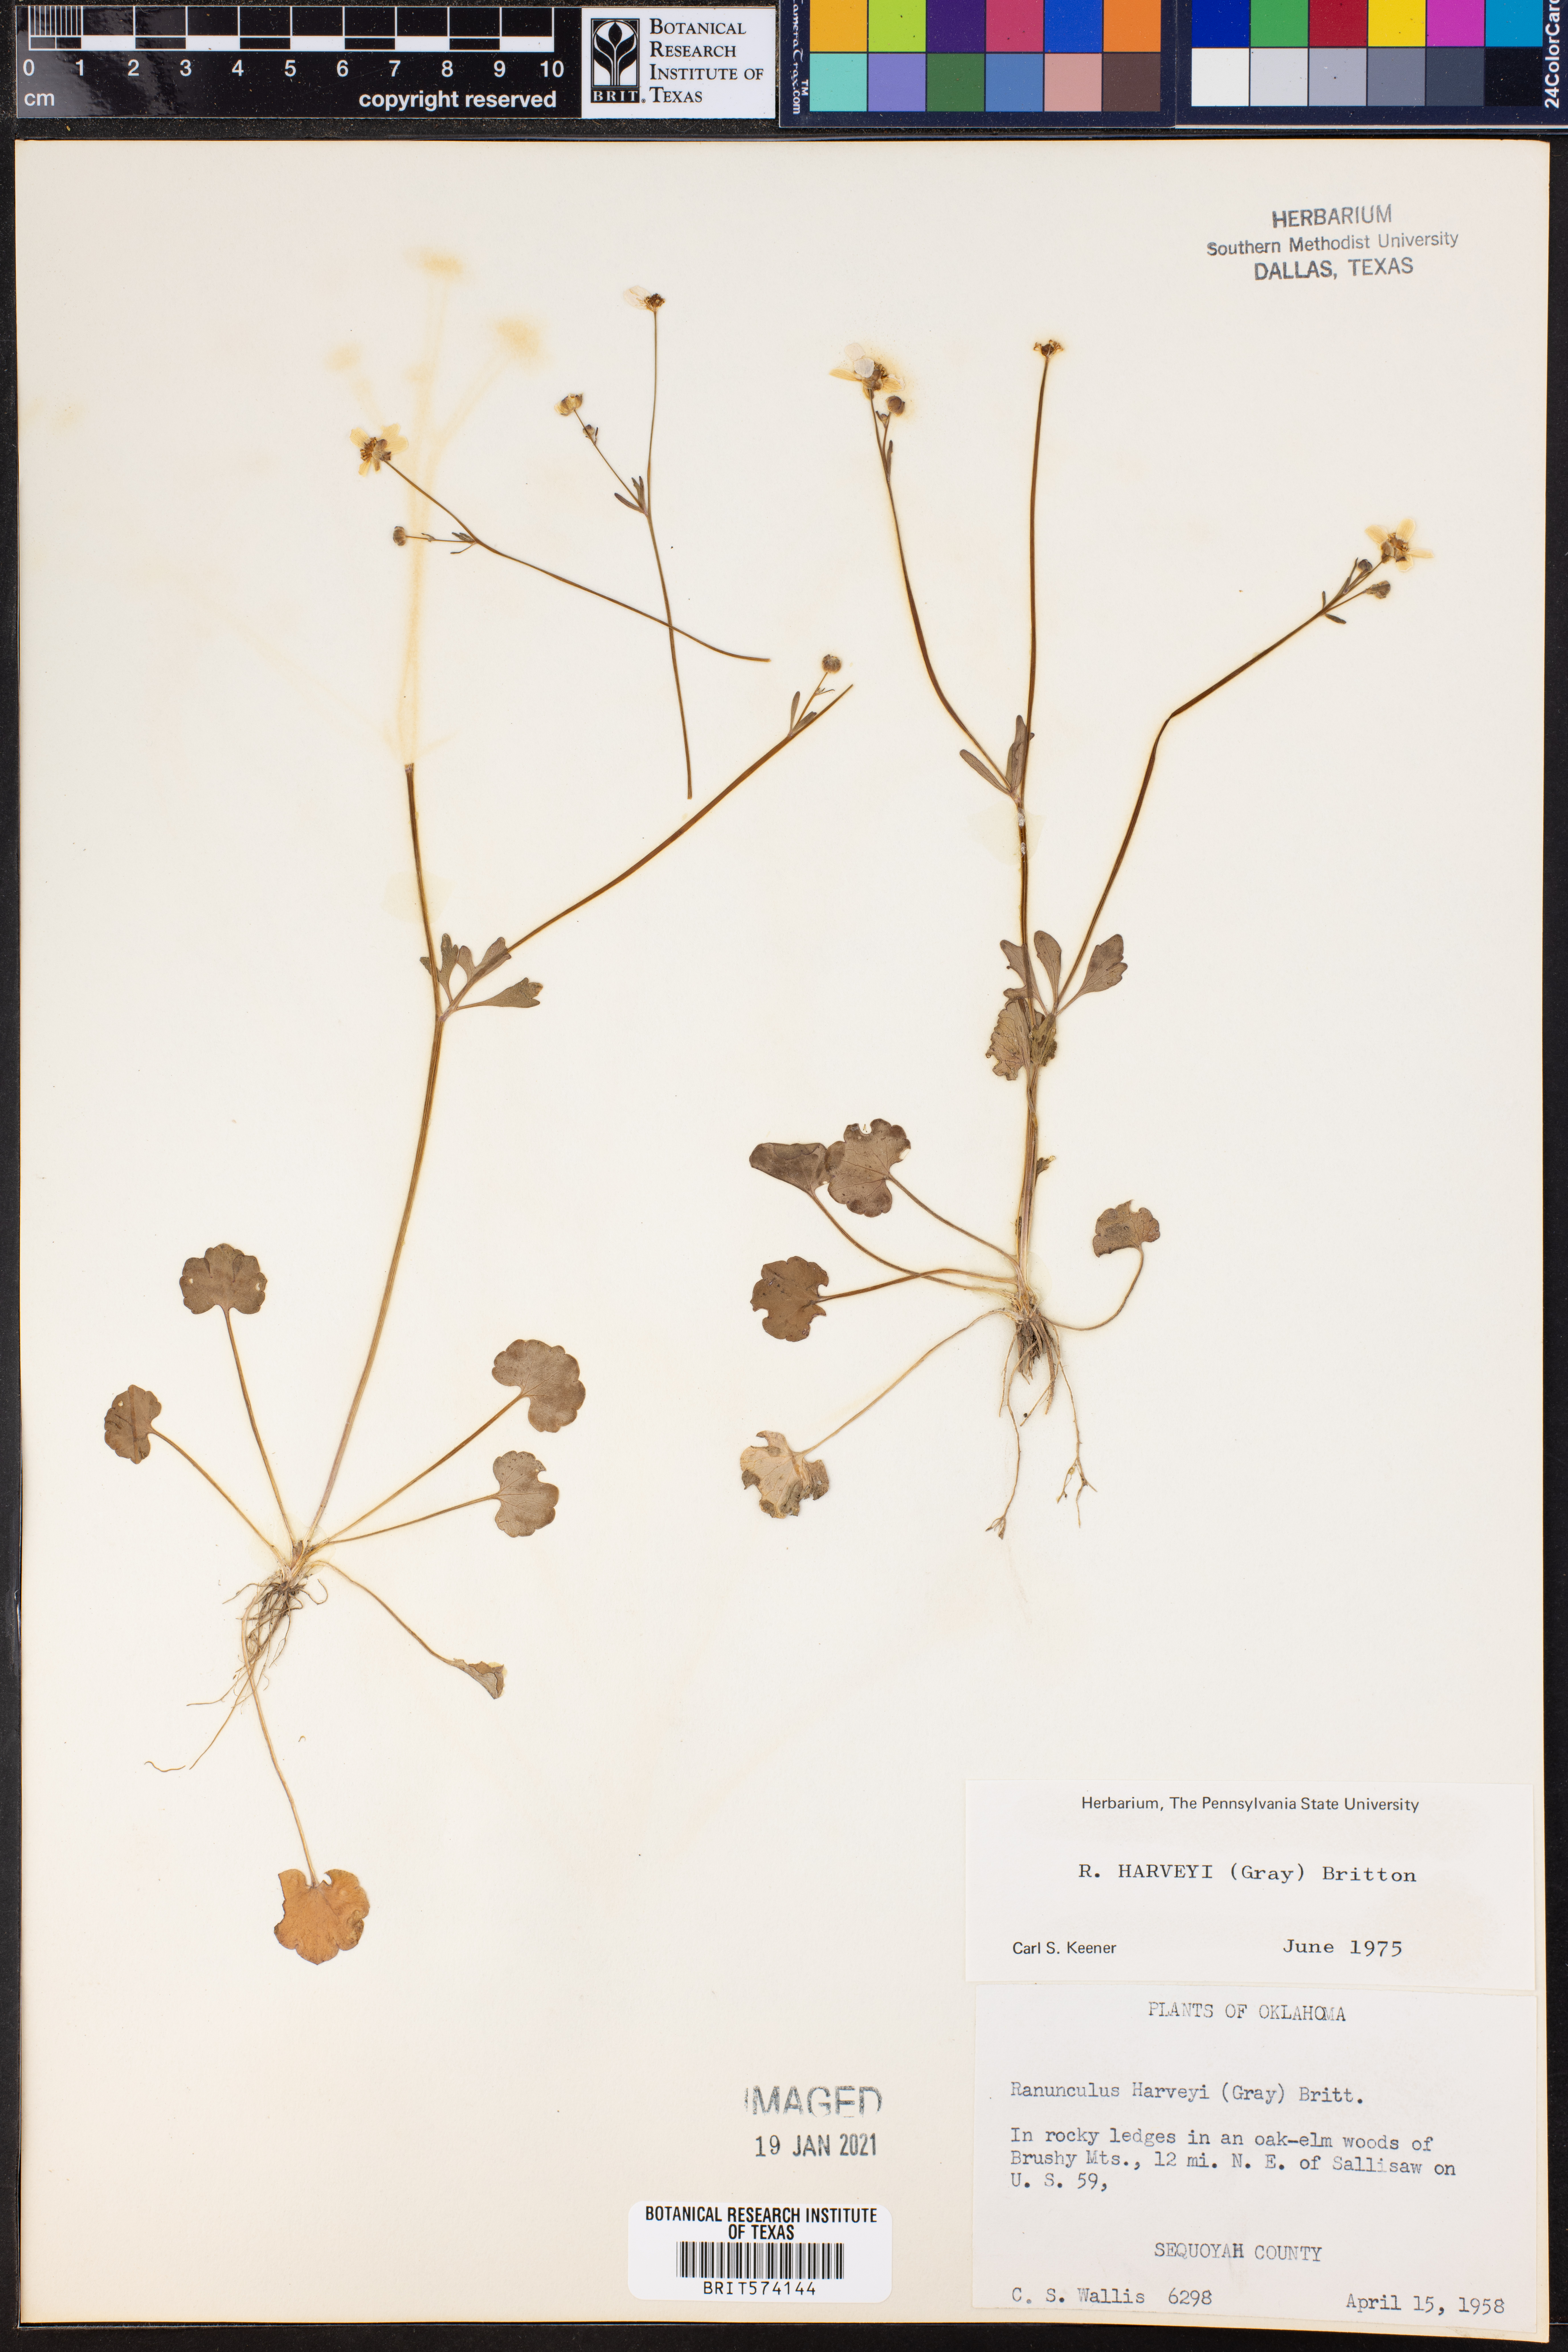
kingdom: Plantae
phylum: Tracheophyta
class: Magnoliopsida
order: Ranunculales
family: Ranunculaceae
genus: Ranunculus
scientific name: Ranunculus harveyi
